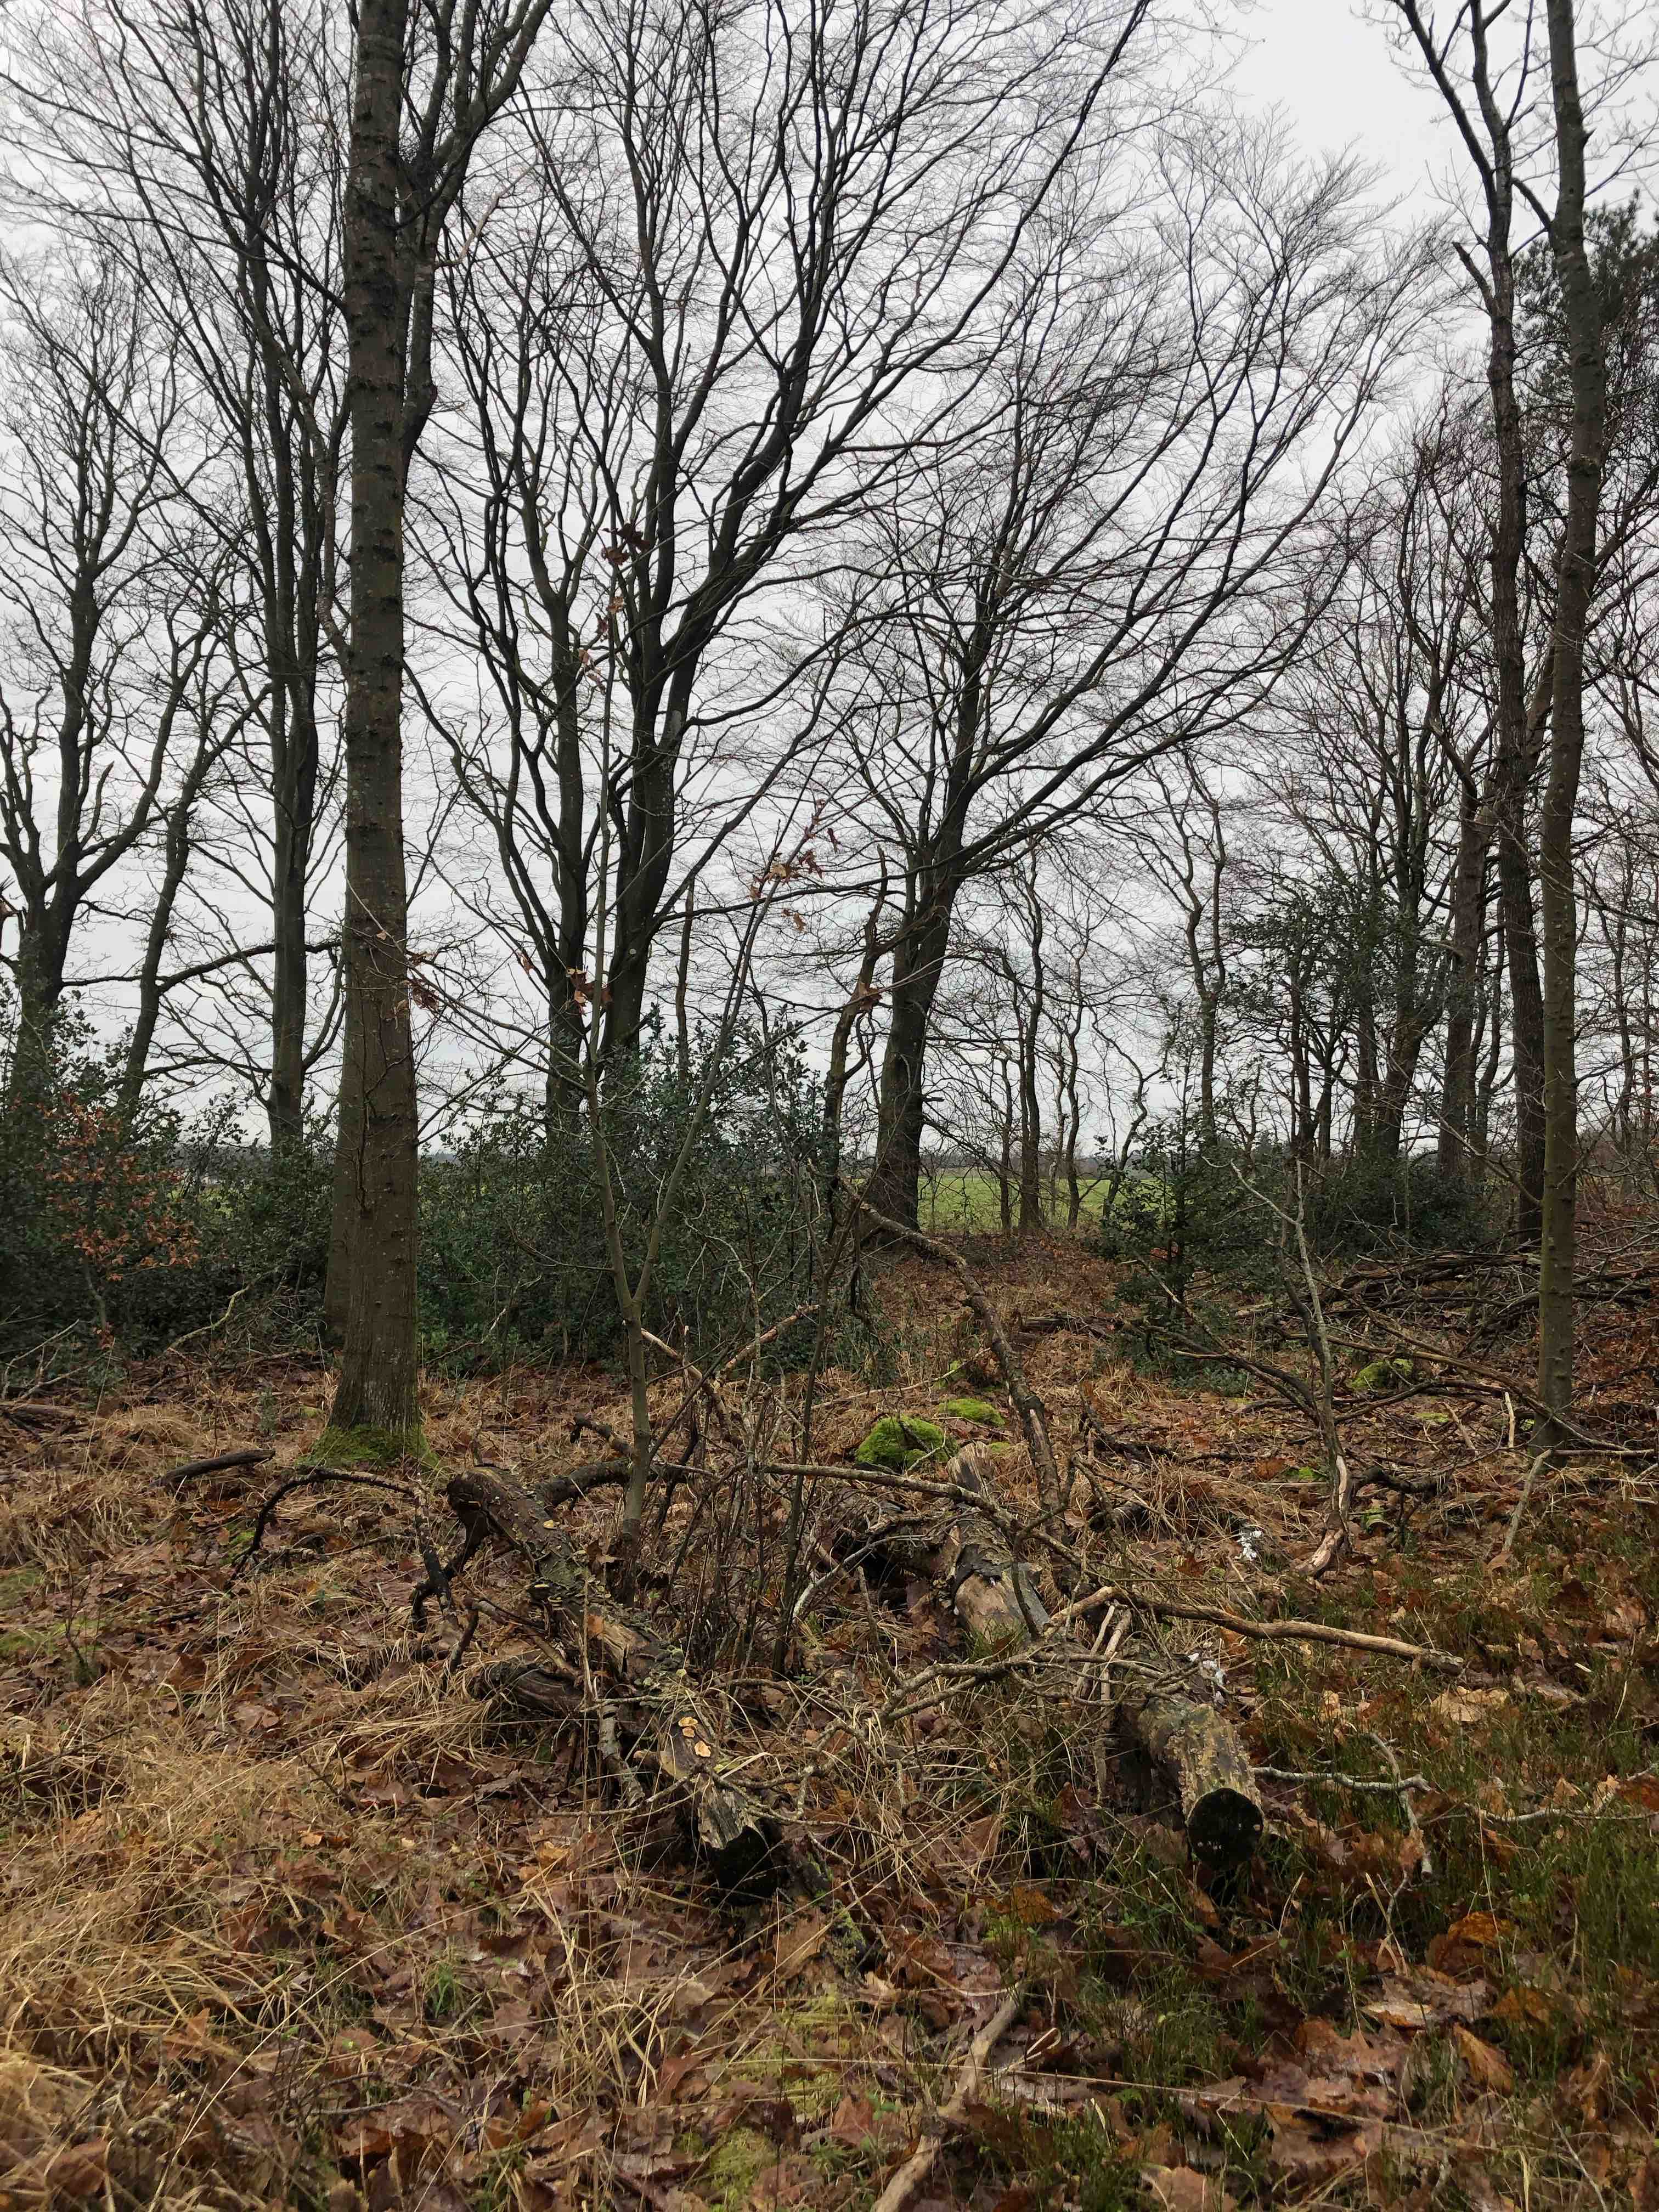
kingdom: Fungi
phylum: Basidiomycota
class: Agaricomycetes
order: Polyporales
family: Polyporaceae
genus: Lenzites
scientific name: Lenzites betulinus
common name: birke-læderporesvamp
